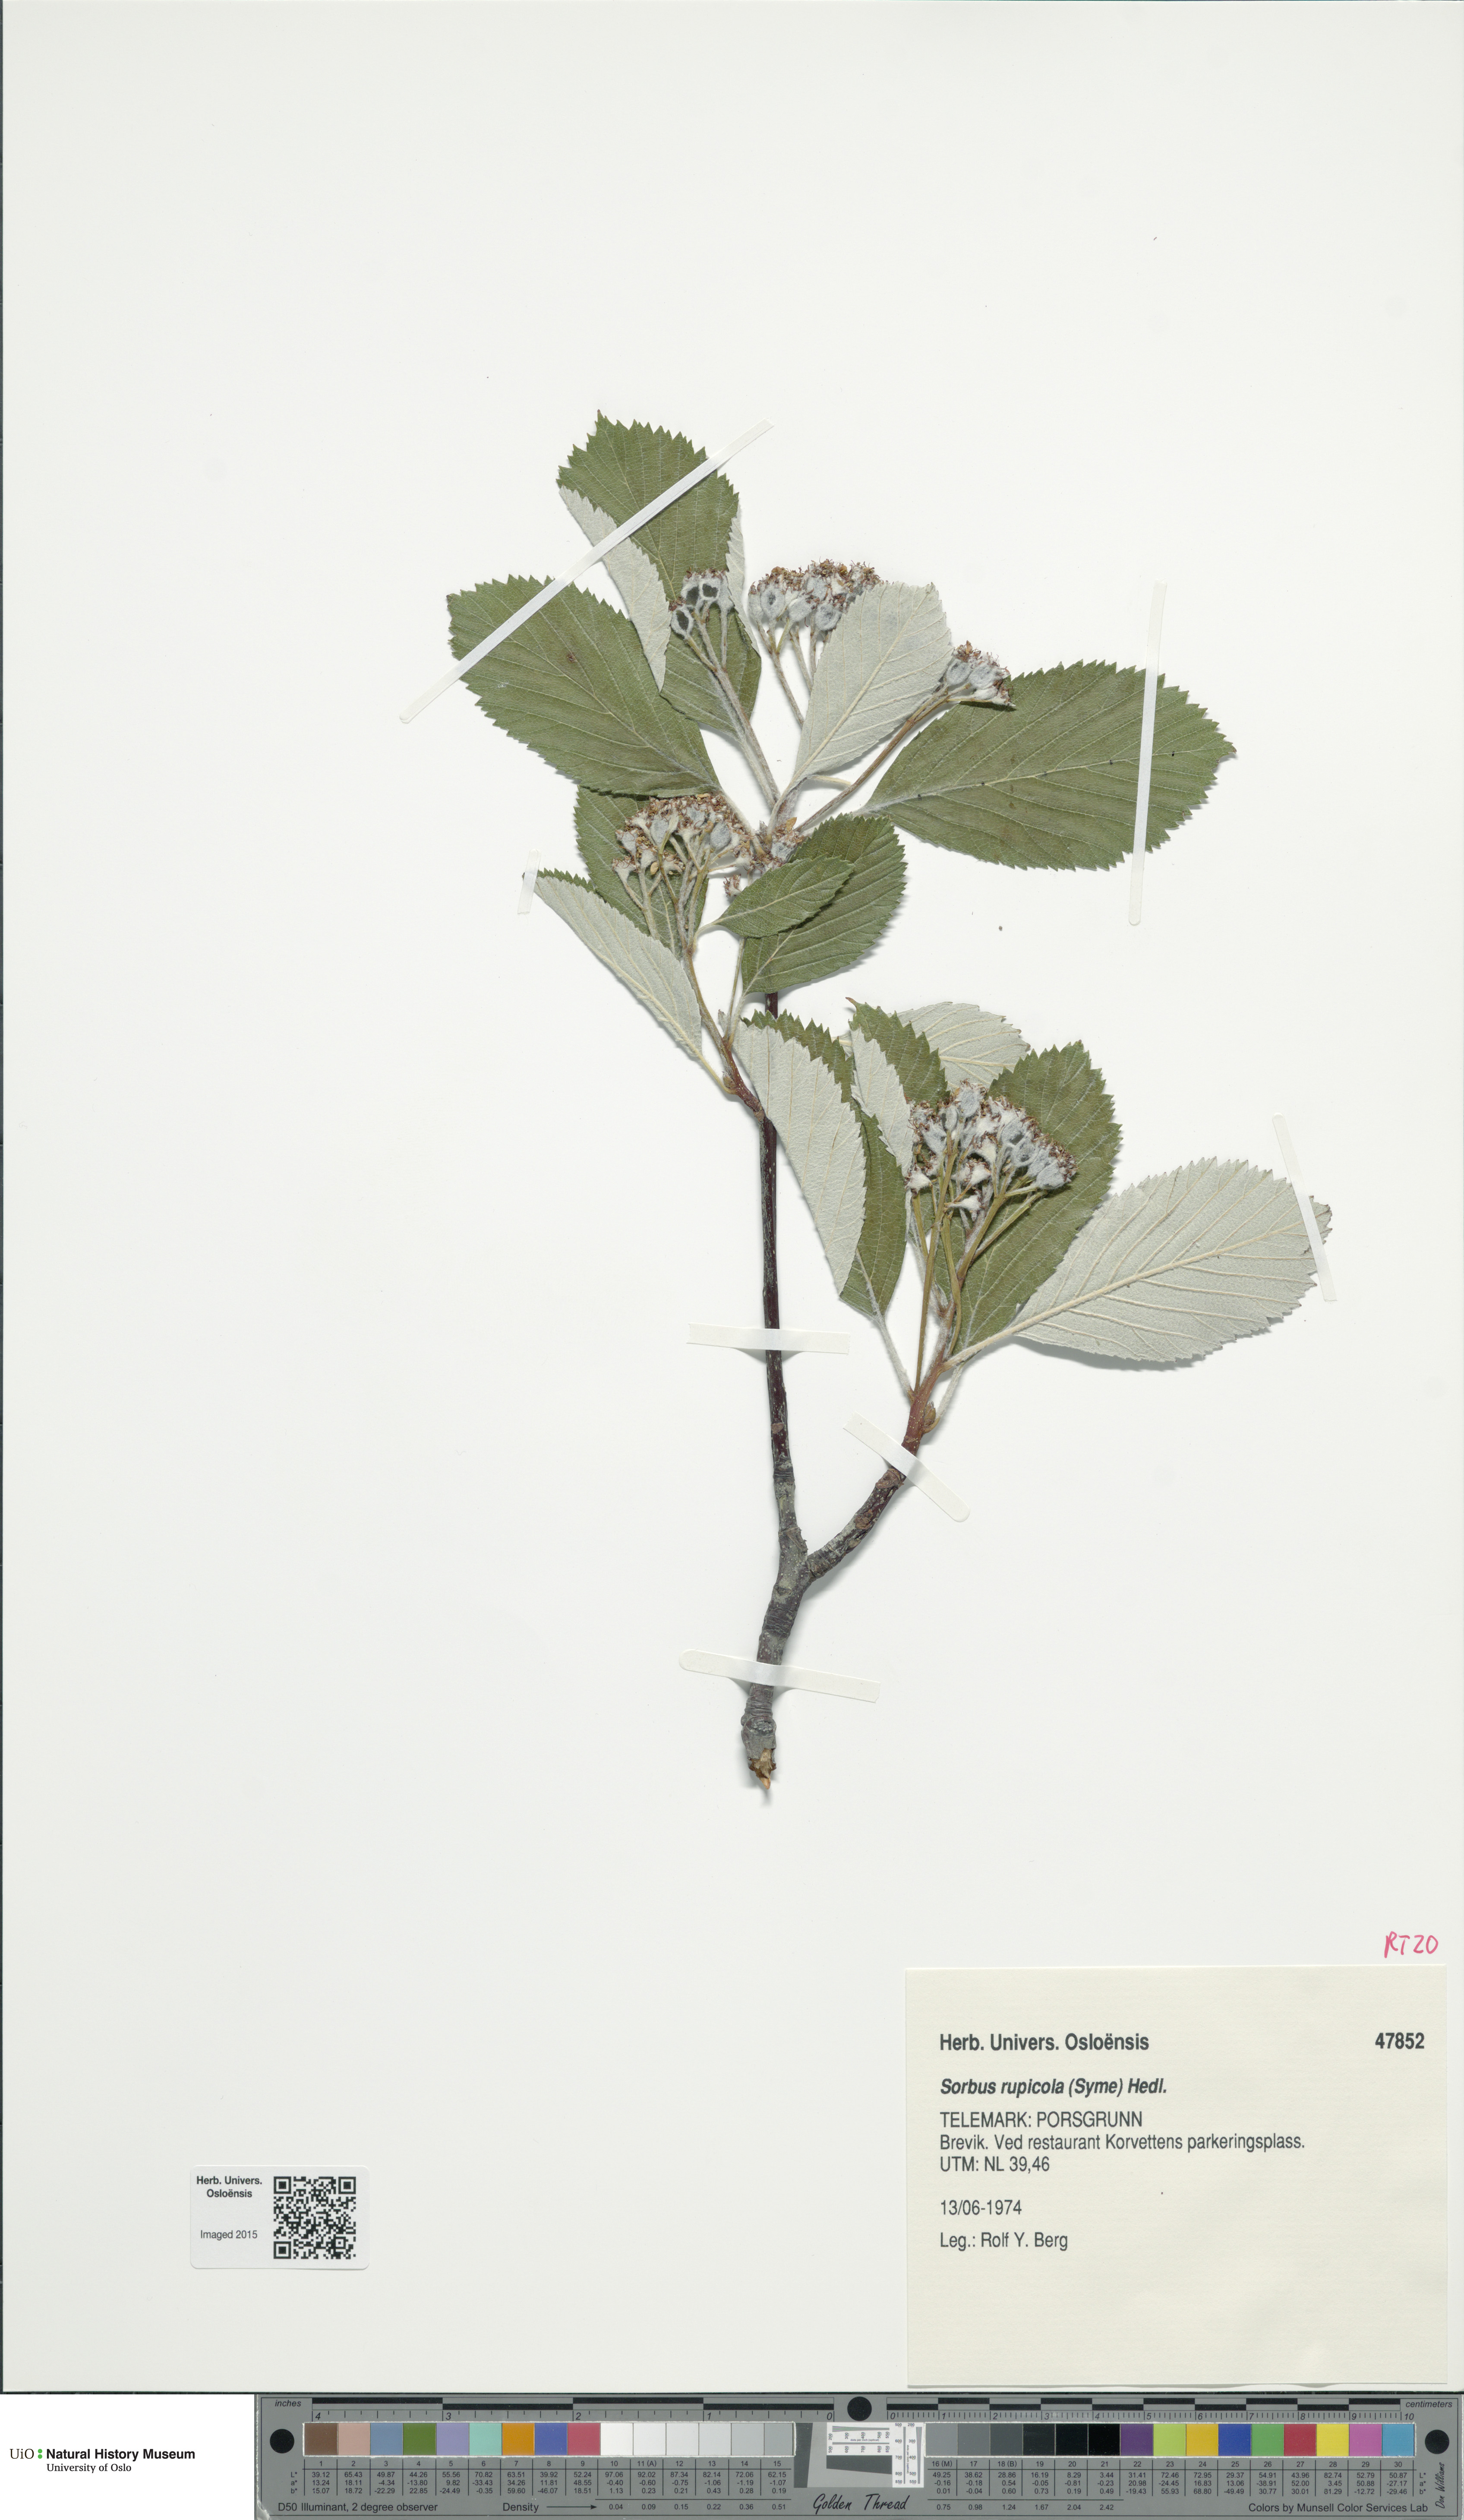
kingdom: Plantae
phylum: Tracheophyta
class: Magnoliopsida
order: Rosales
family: Rosaceae
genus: Aria
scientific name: Aria rupicola
